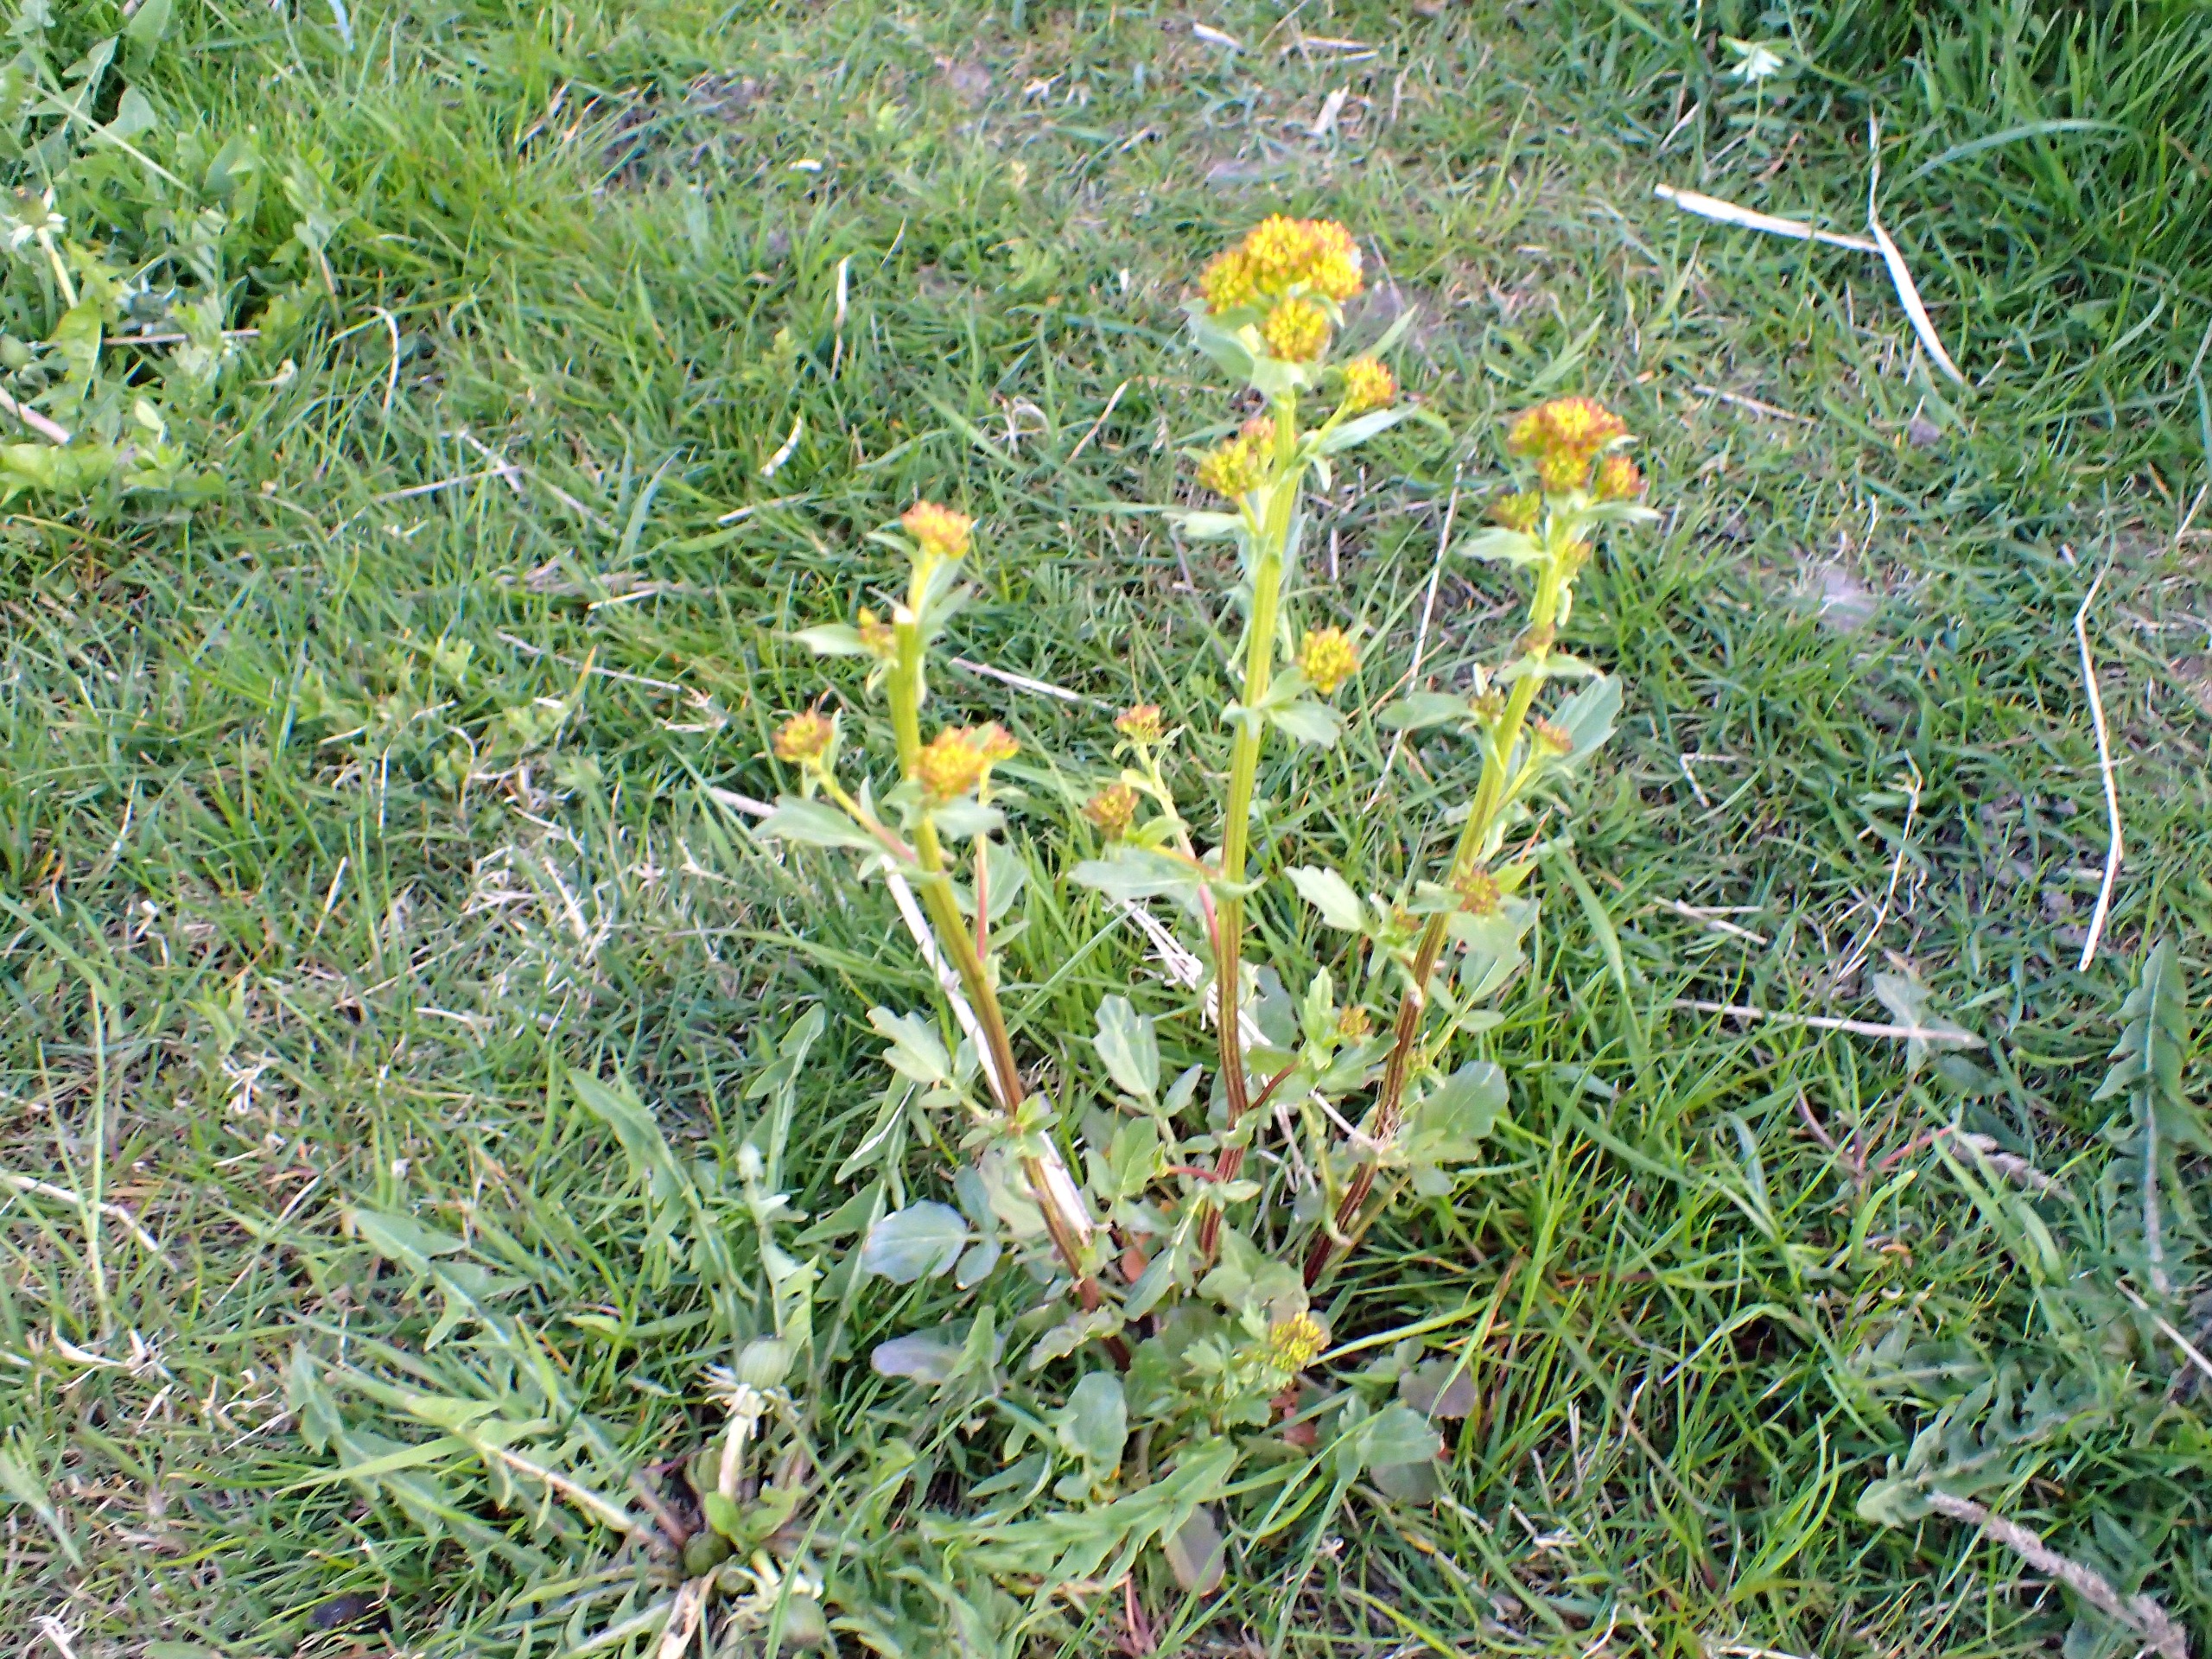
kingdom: Plantae
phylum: Tracheophyta
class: Magnoliopsida
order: Brassicales
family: Brassicaceae
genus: Barbarea
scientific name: Barbarea vulgaris
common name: Almindelig vinterkarse
